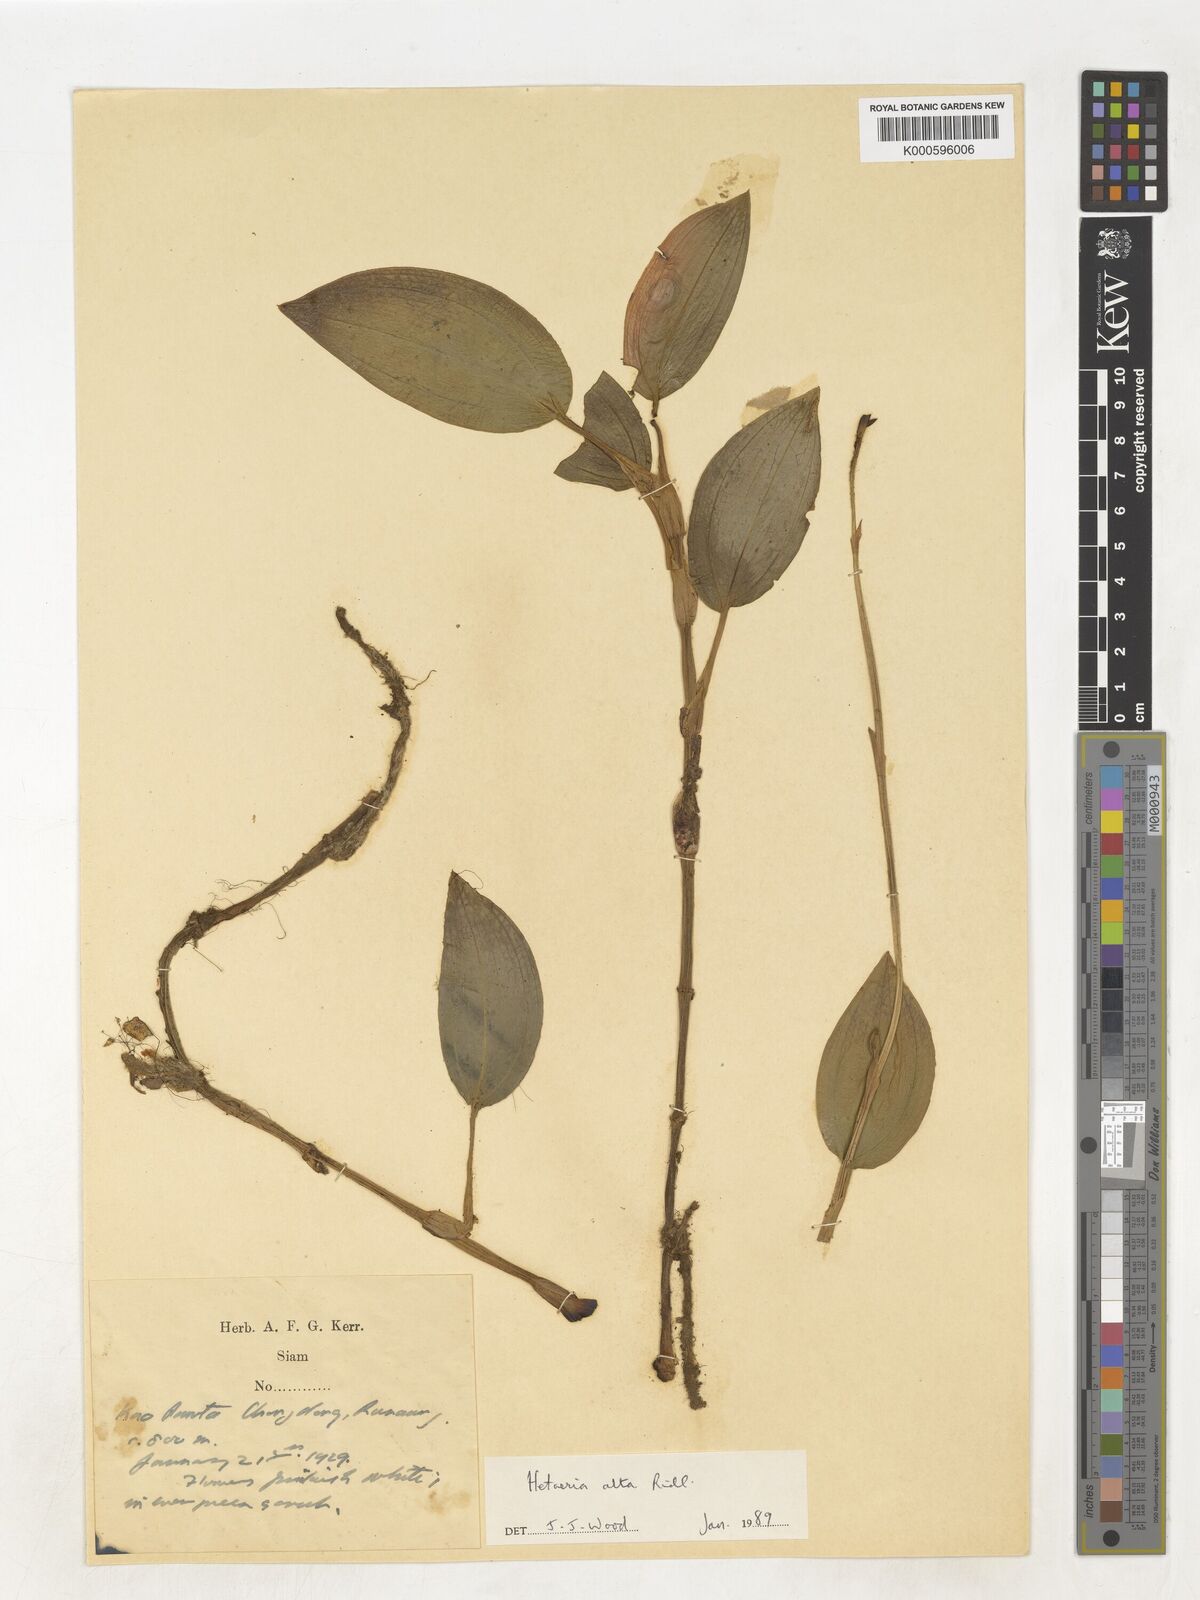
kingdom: Plantae
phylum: Tracheophyta
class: Liliopsida
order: Asparagales
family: Orchidaceae
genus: Hetaeria
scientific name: Hetaeria alta
